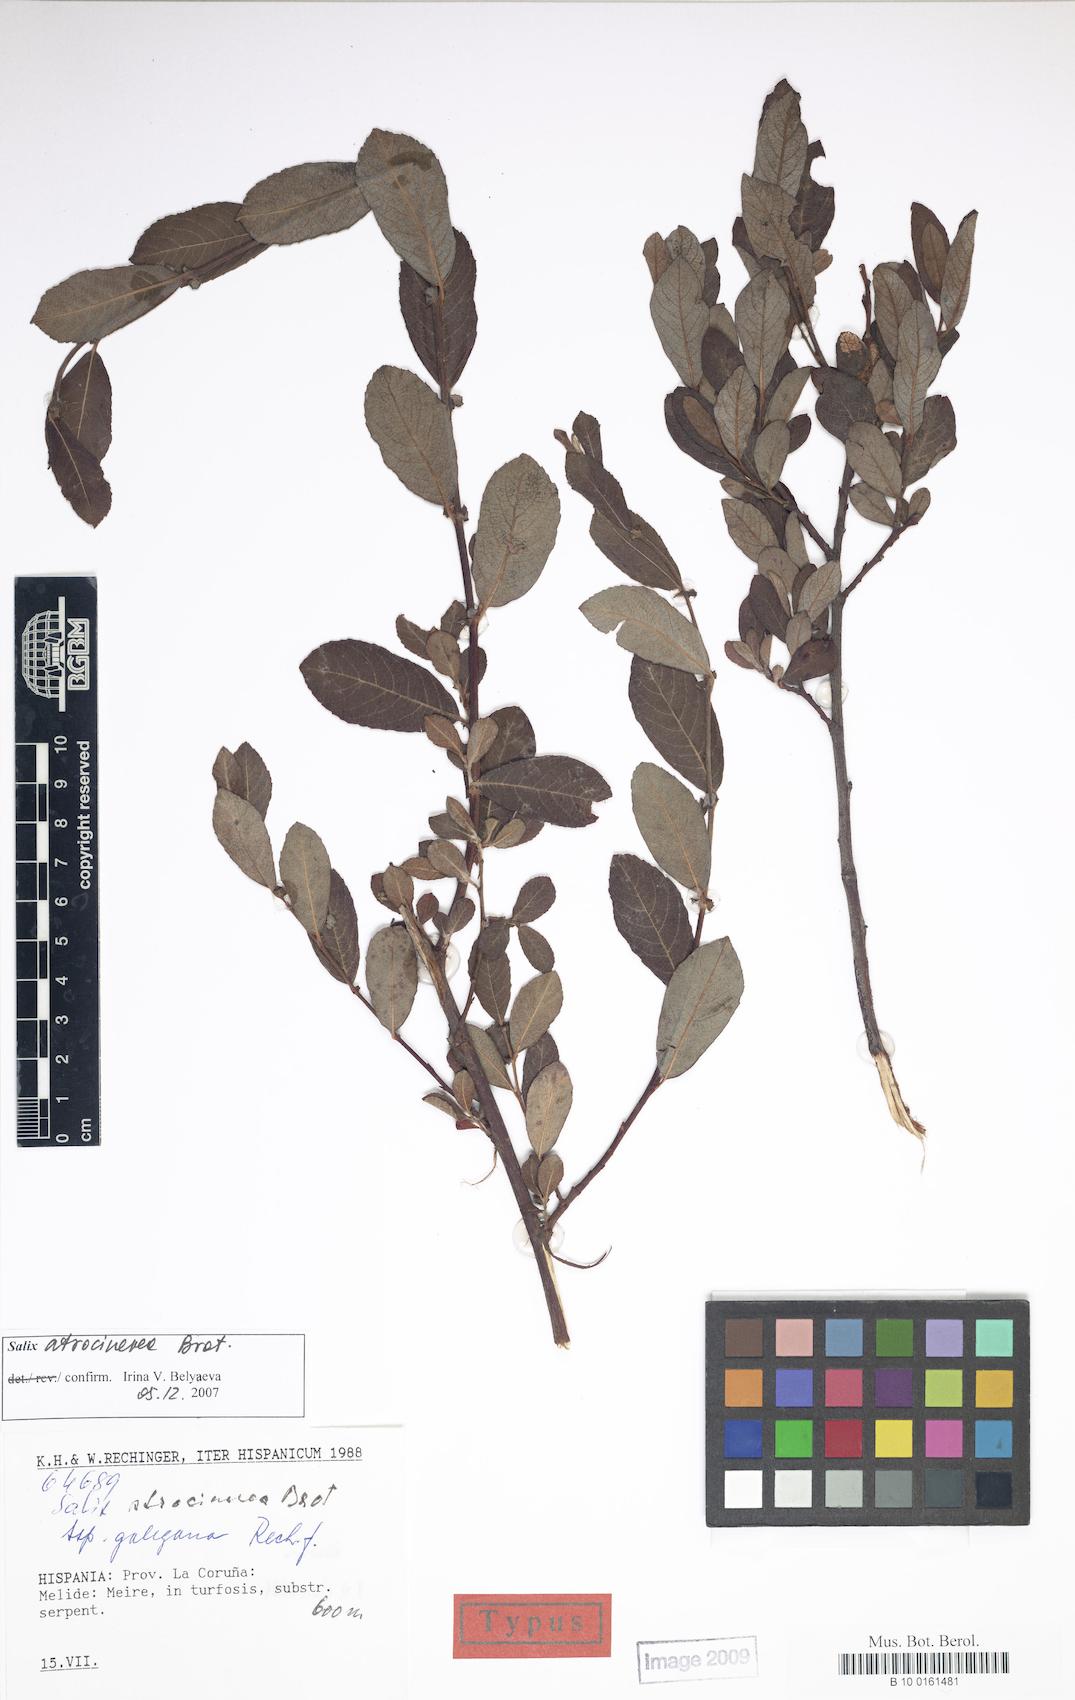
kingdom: Plantae
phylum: Tracheophyta
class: Magnoliopsida
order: Malpighiales
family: Salicaceae
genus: Salix
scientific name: Salix atrocinerea
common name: Rusty willow
